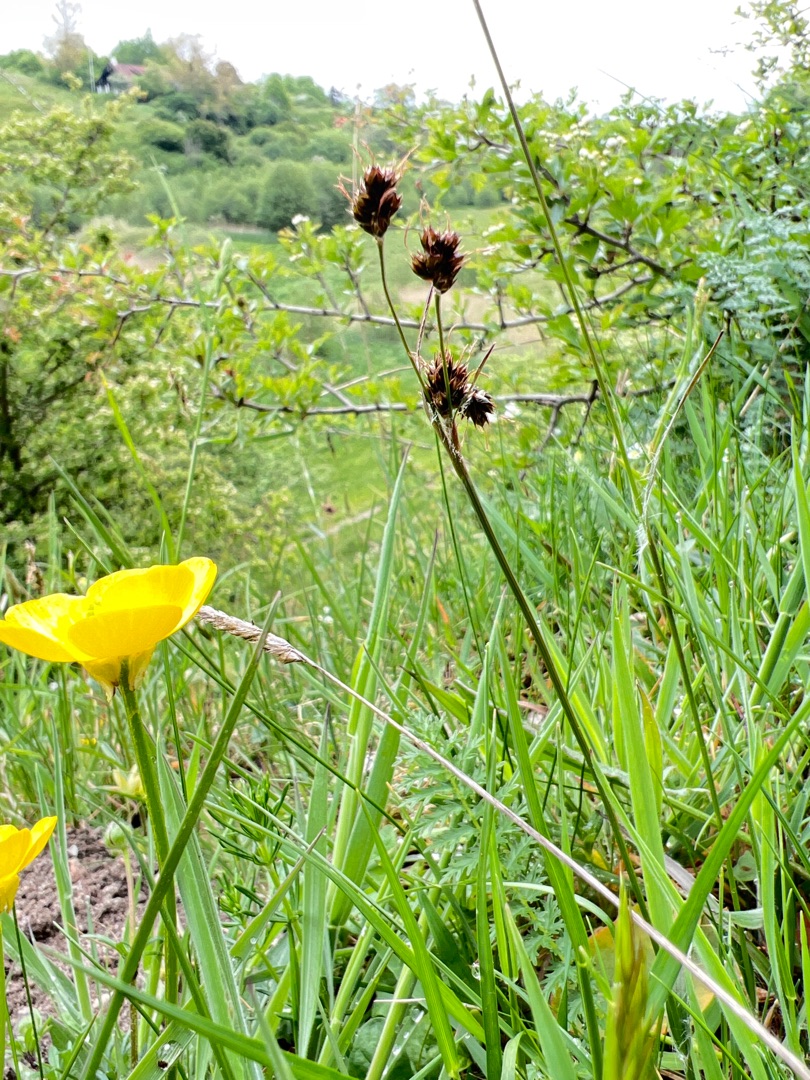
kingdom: Plantae
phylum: Tracheophyta
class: Liliopsida
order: Poales
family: Juncaceae
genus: Luzula
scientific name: Luzula campestris
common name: Mark-frytle
